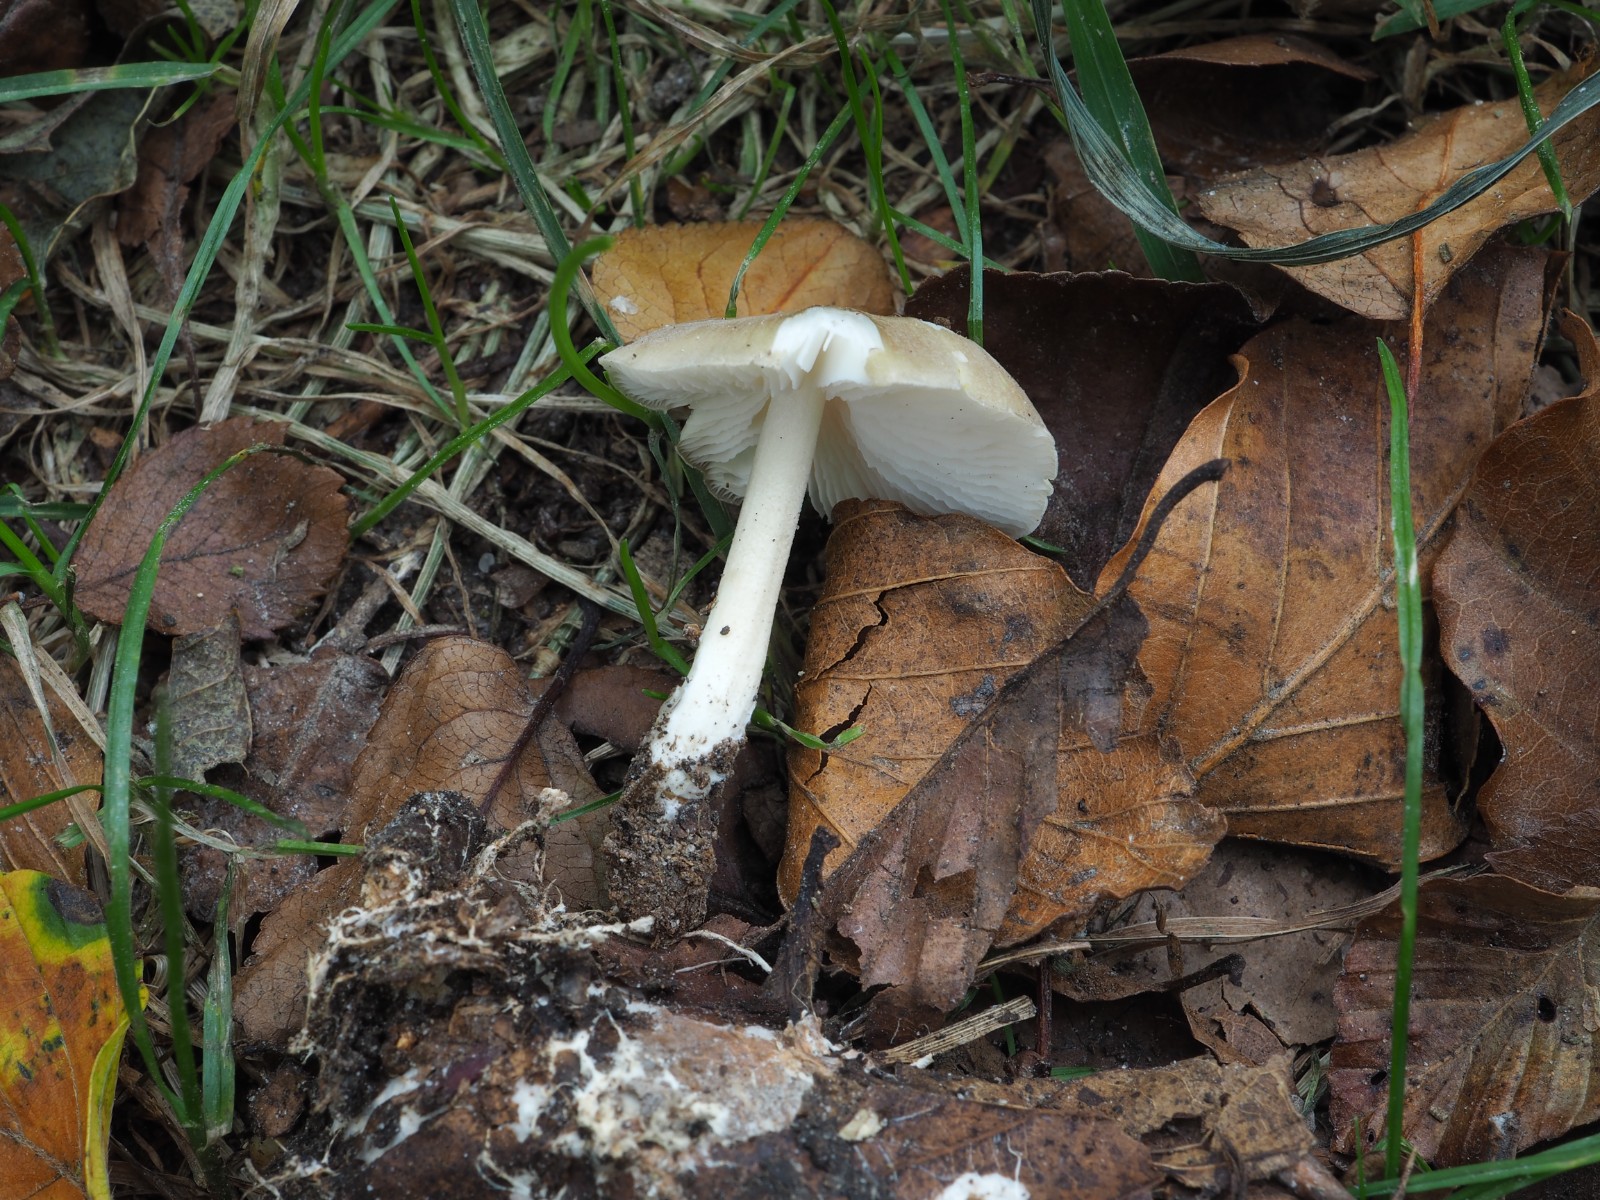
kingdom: Fungi
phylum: Basidiomycota
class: Agaricomycetes
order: Agaricales
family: Porotheleaceae
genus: Hydropodia
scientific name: Hydropodia subalpina
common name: vår-fnugfod
